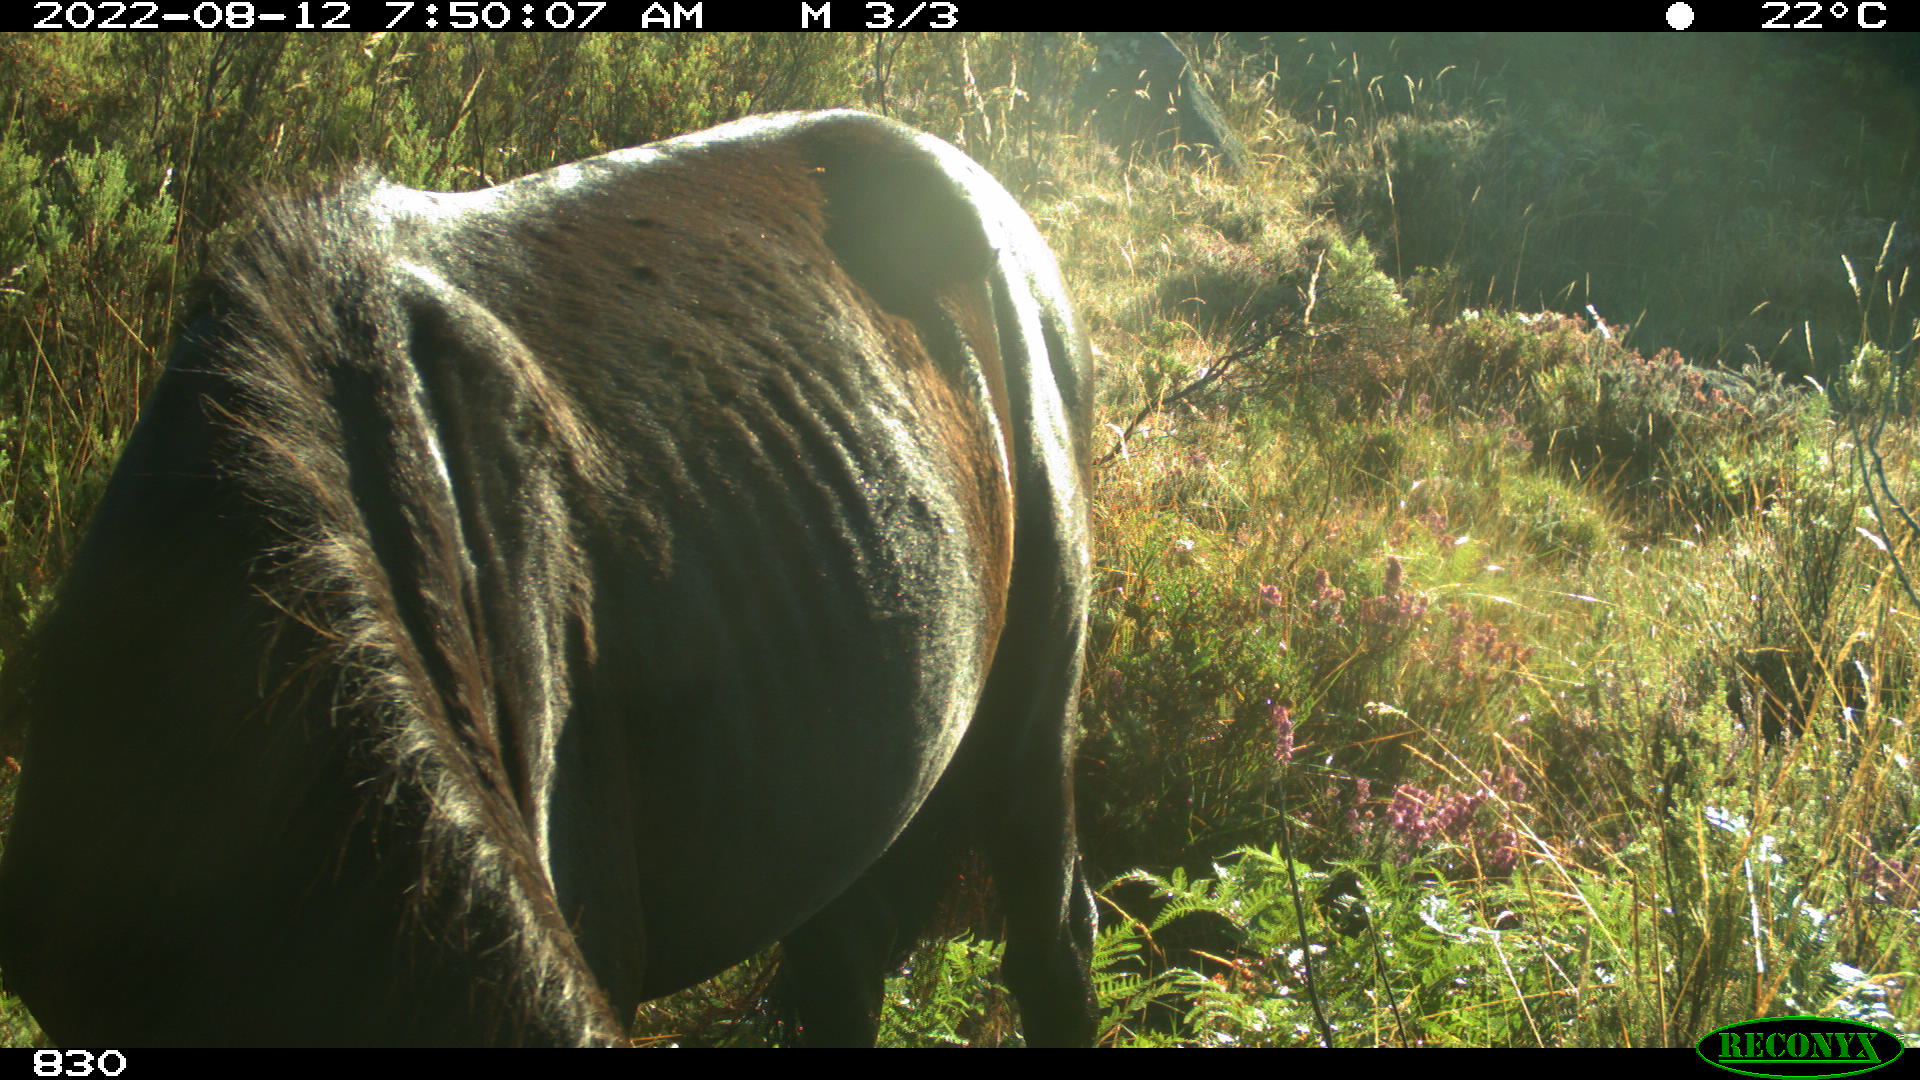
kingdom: Animalia
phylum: Chordata
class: Mammalia
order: Perissodactyla
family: Equidae
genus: Equus
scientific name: Equus caballus
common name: Horse
